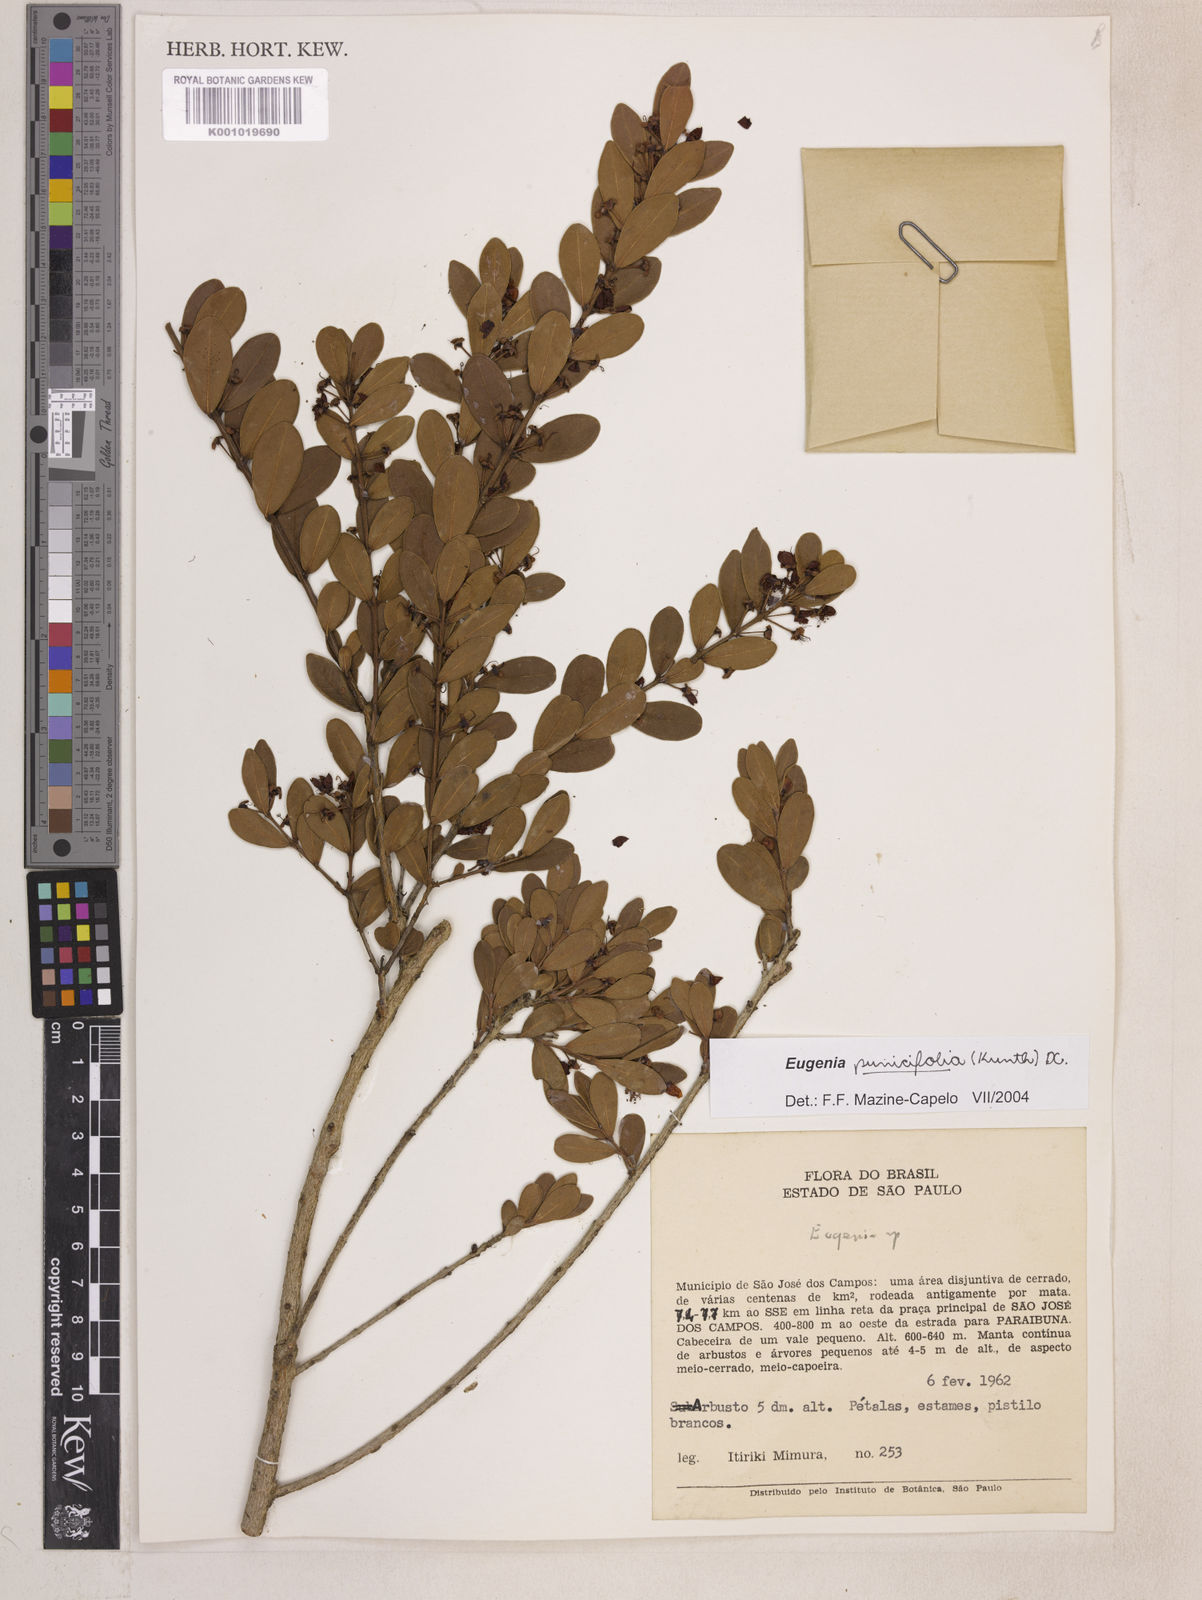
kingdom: Plantae
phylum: Tracheophyta
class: Magnoliopsida
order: Myrtales
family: Myrtaceae
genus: Eugenia
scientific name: Eugenia punicifolia
